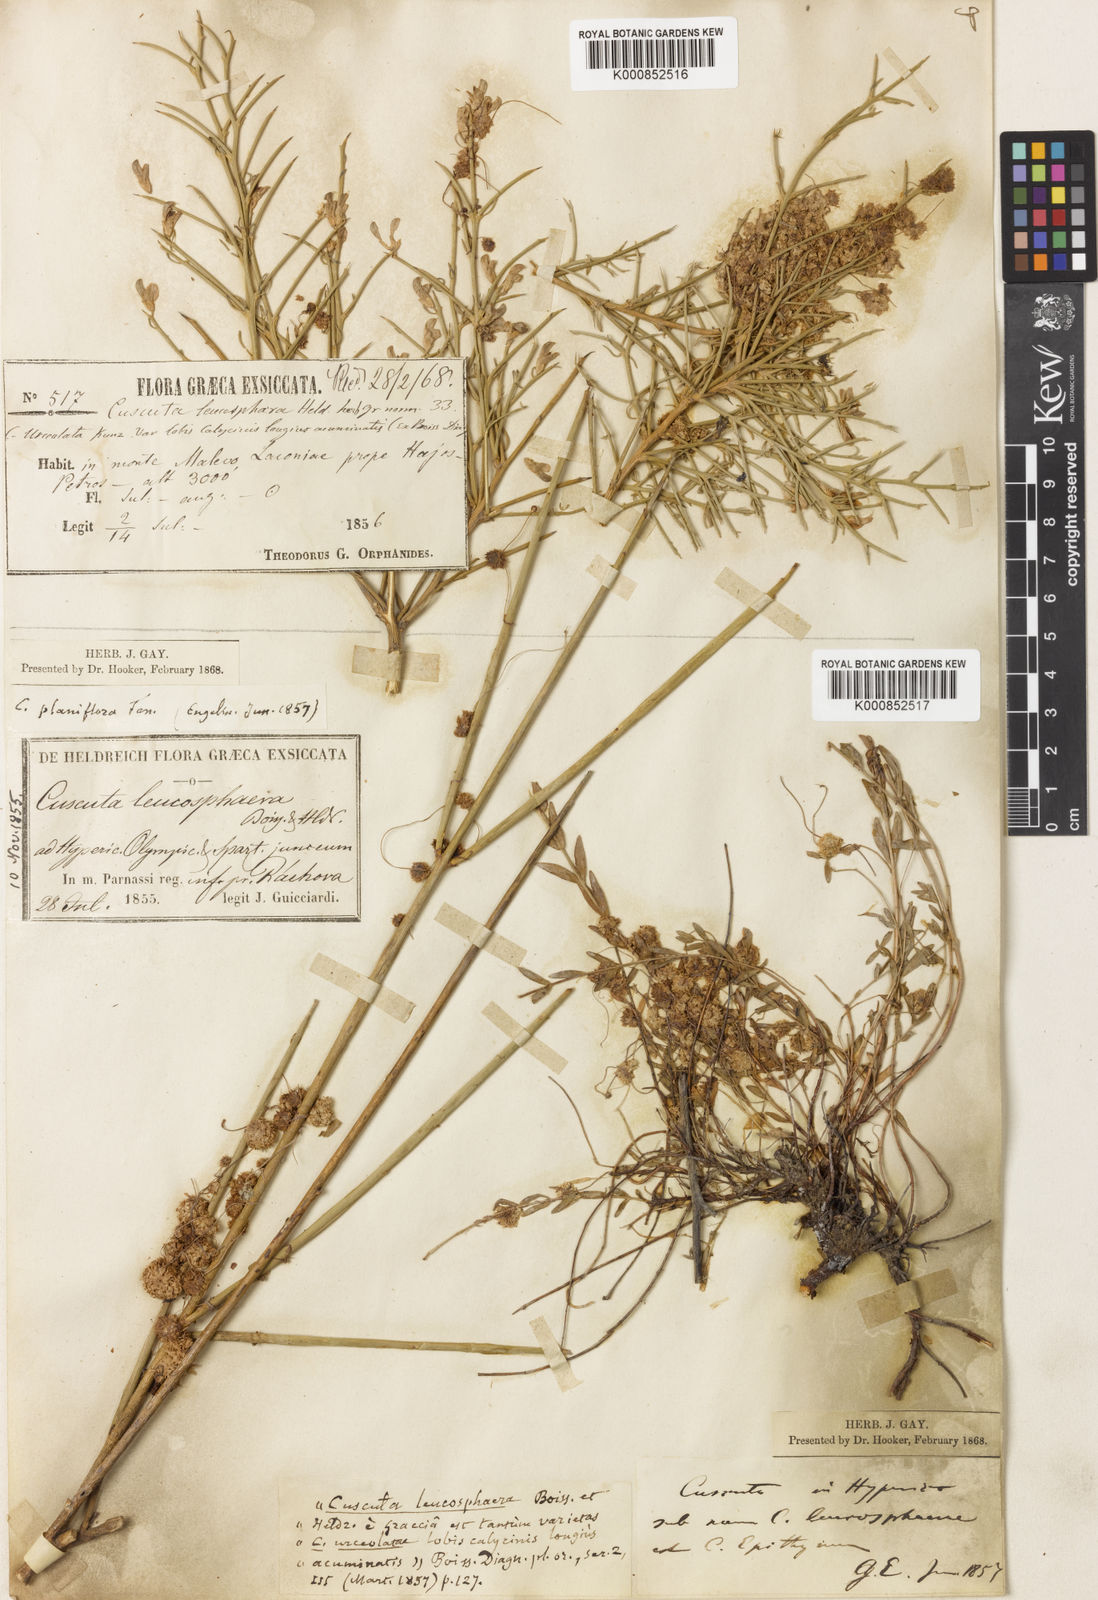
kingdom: Plantae
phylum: Tracheophyta
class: Magnoliopsida
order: Solanales
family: Convolvulaceae
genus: Cuscuta
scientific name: Cuscuta approximata
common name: Alfalfa dodder
